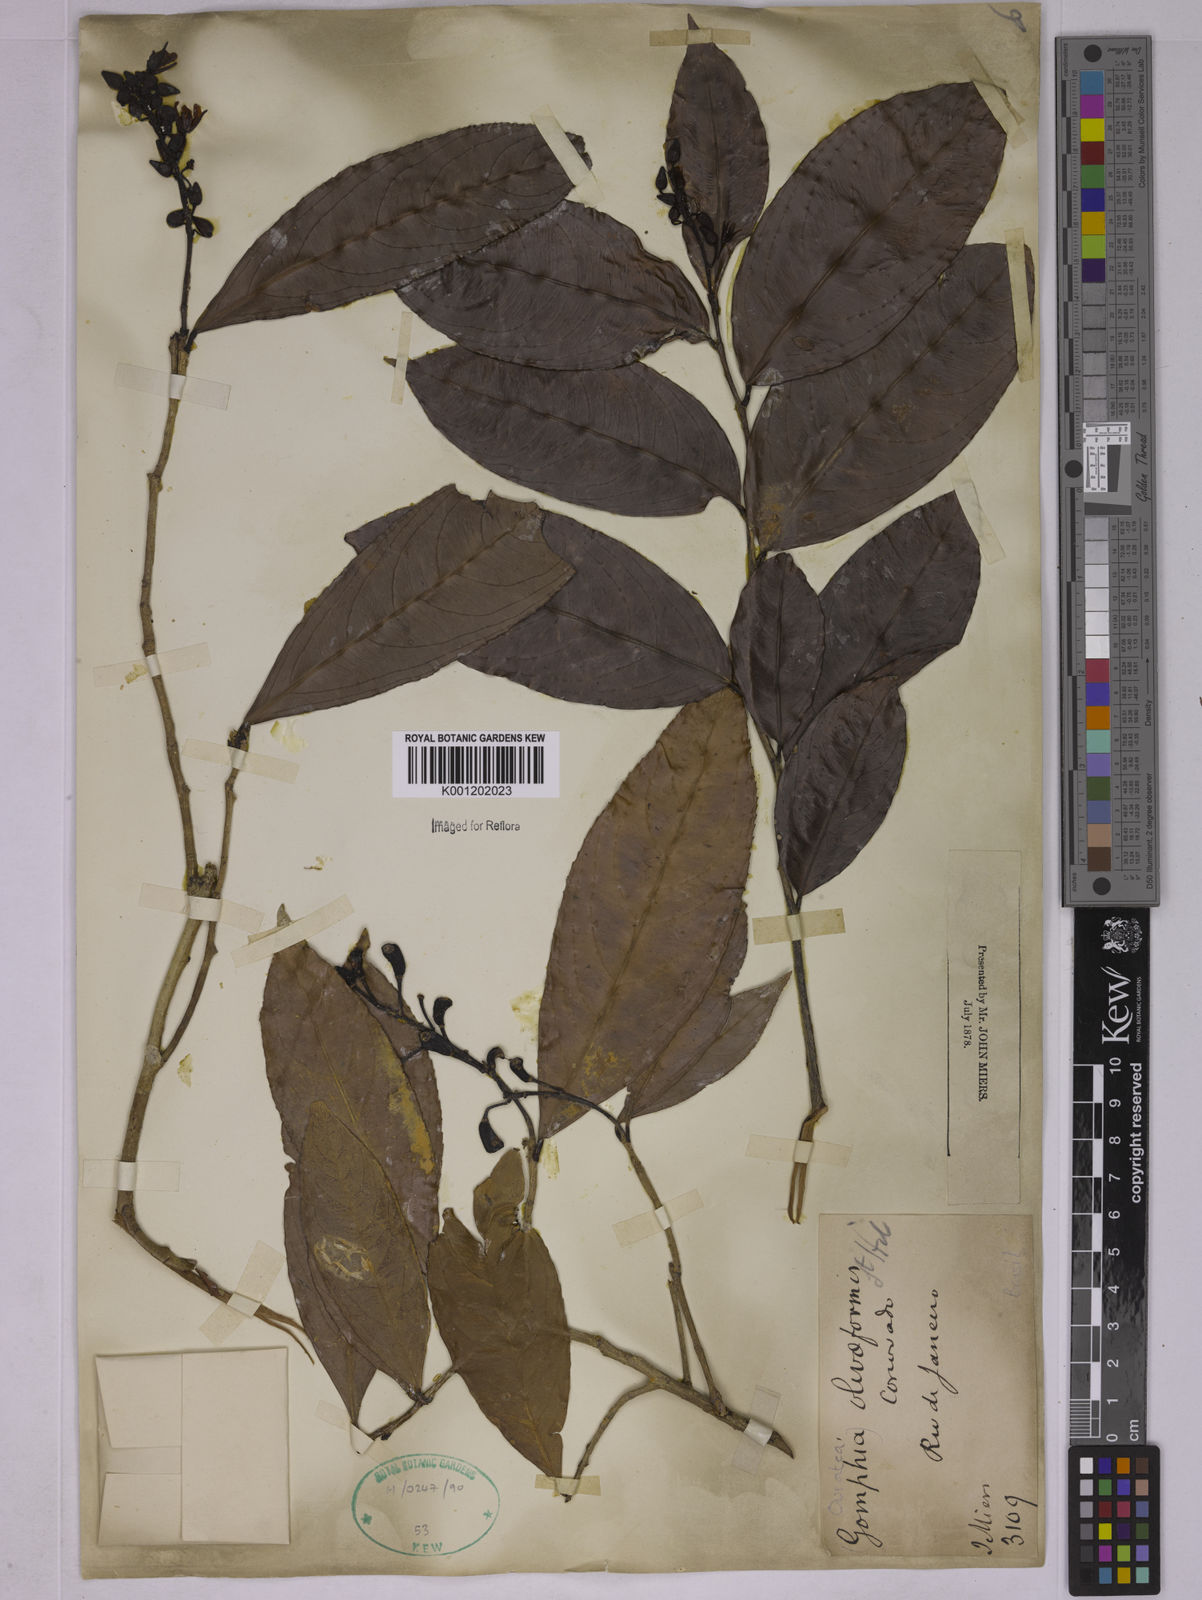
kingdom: Plantae
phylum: Tracheophyta
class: Magnoliopsida
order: Malpighiales
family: Ochnaceae
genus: Ouratea
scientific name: Ouratea oliviformis
